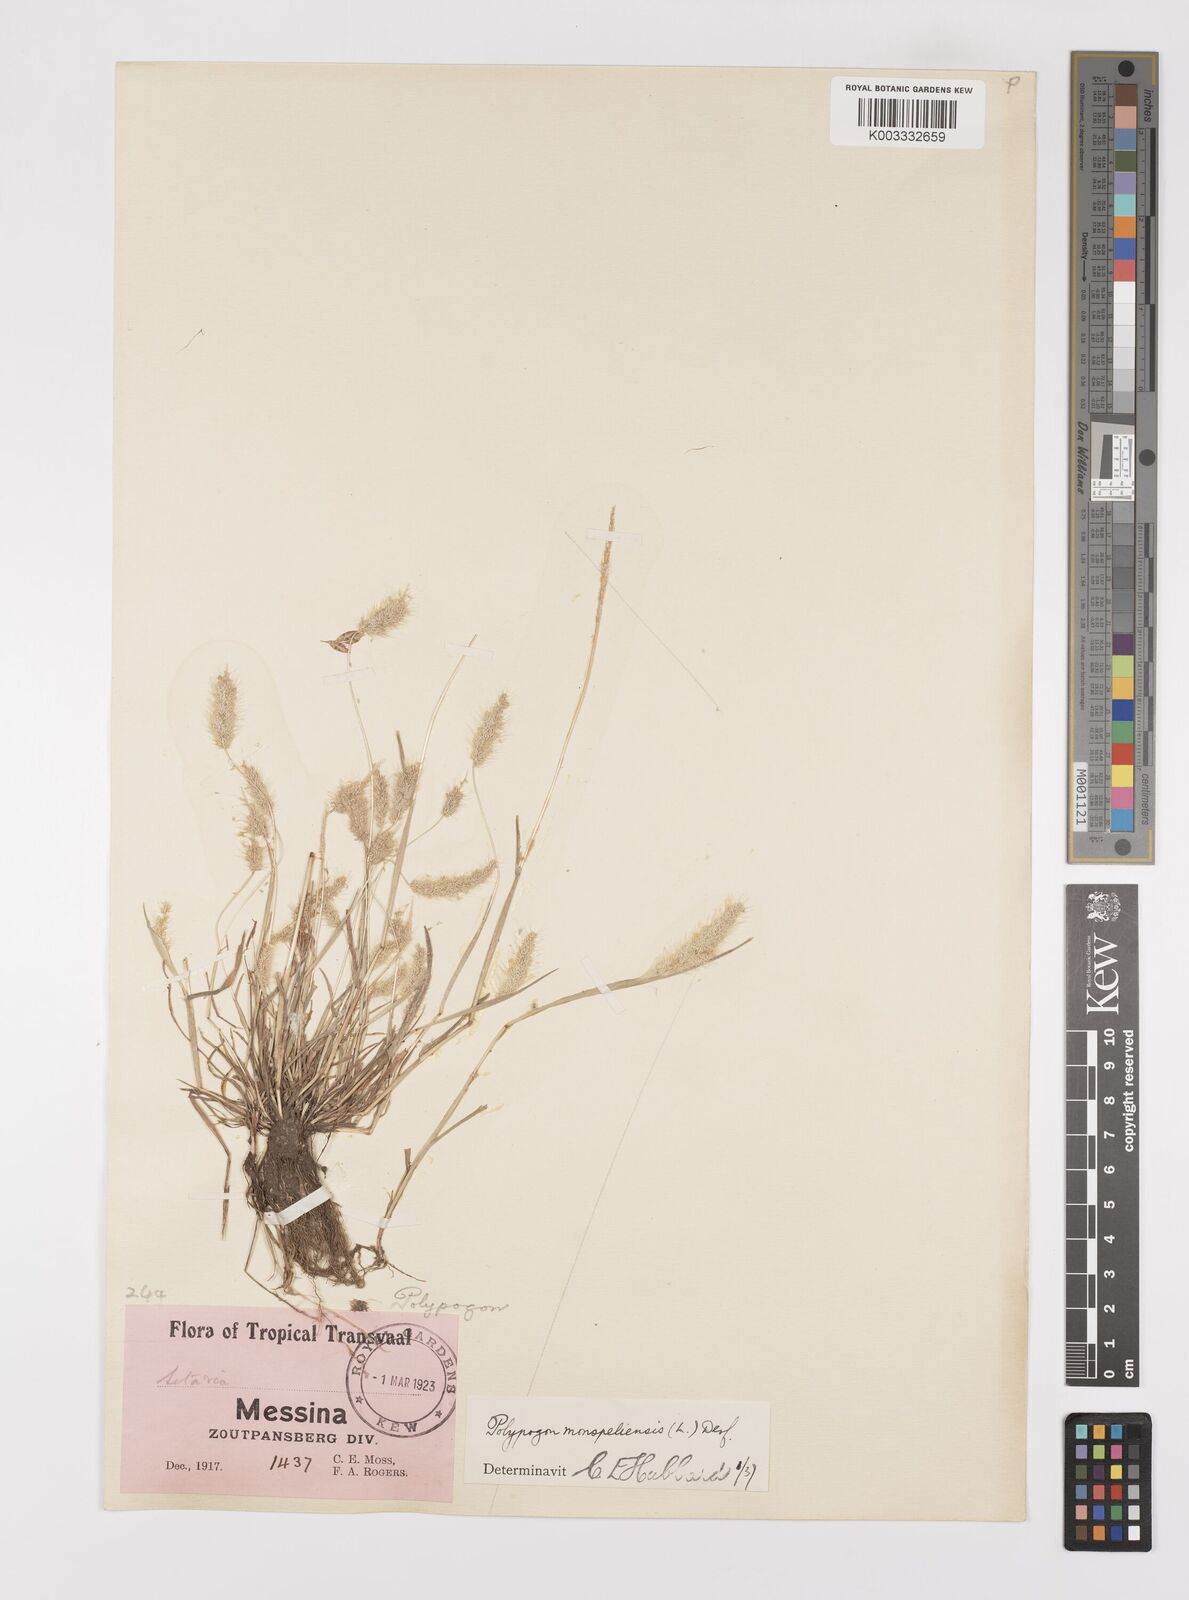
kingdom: Plantae
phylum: Tracheophyta
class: Liliopsida
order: Poales
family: Poaceae
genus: Polypogon
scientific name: Polypogon monspeliensis
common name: Annual rabbitsfoot grass
